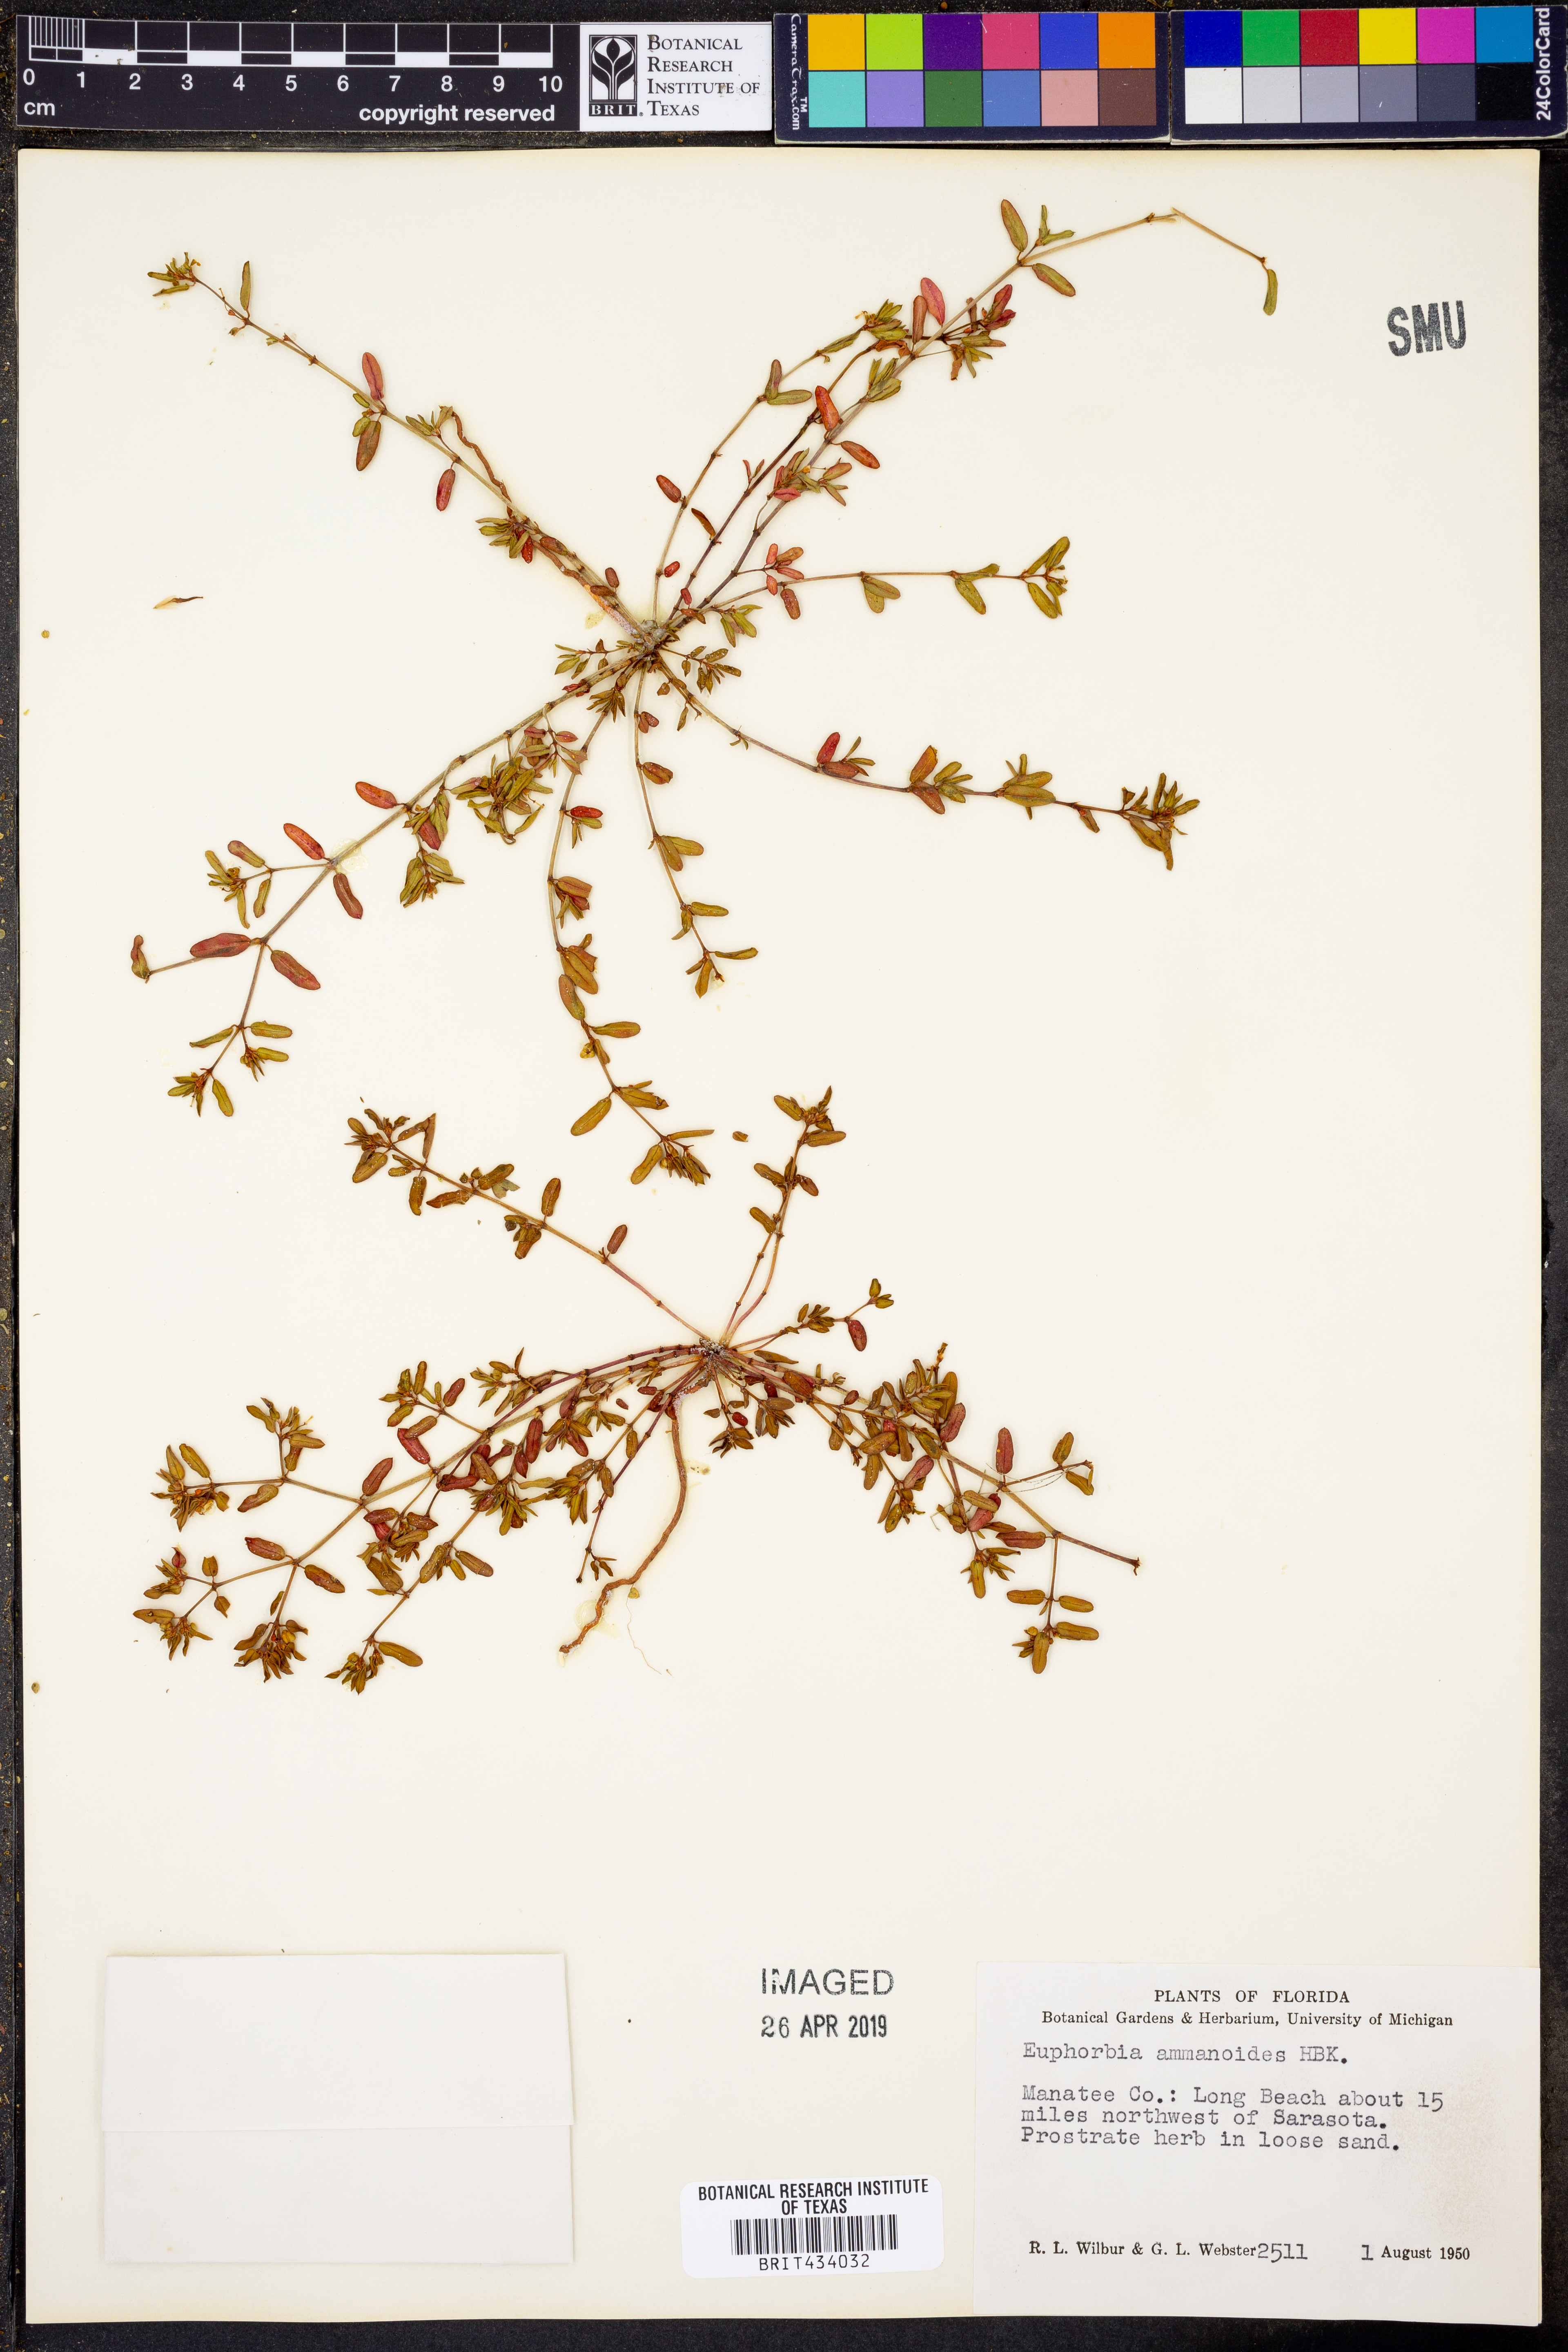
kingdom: Plantae
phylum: Tracheophyta
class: Magnoliopsida
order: Malpighiales
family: Euphorbiaceae
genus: Euphorbia
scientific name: Euphorbia bombensis
